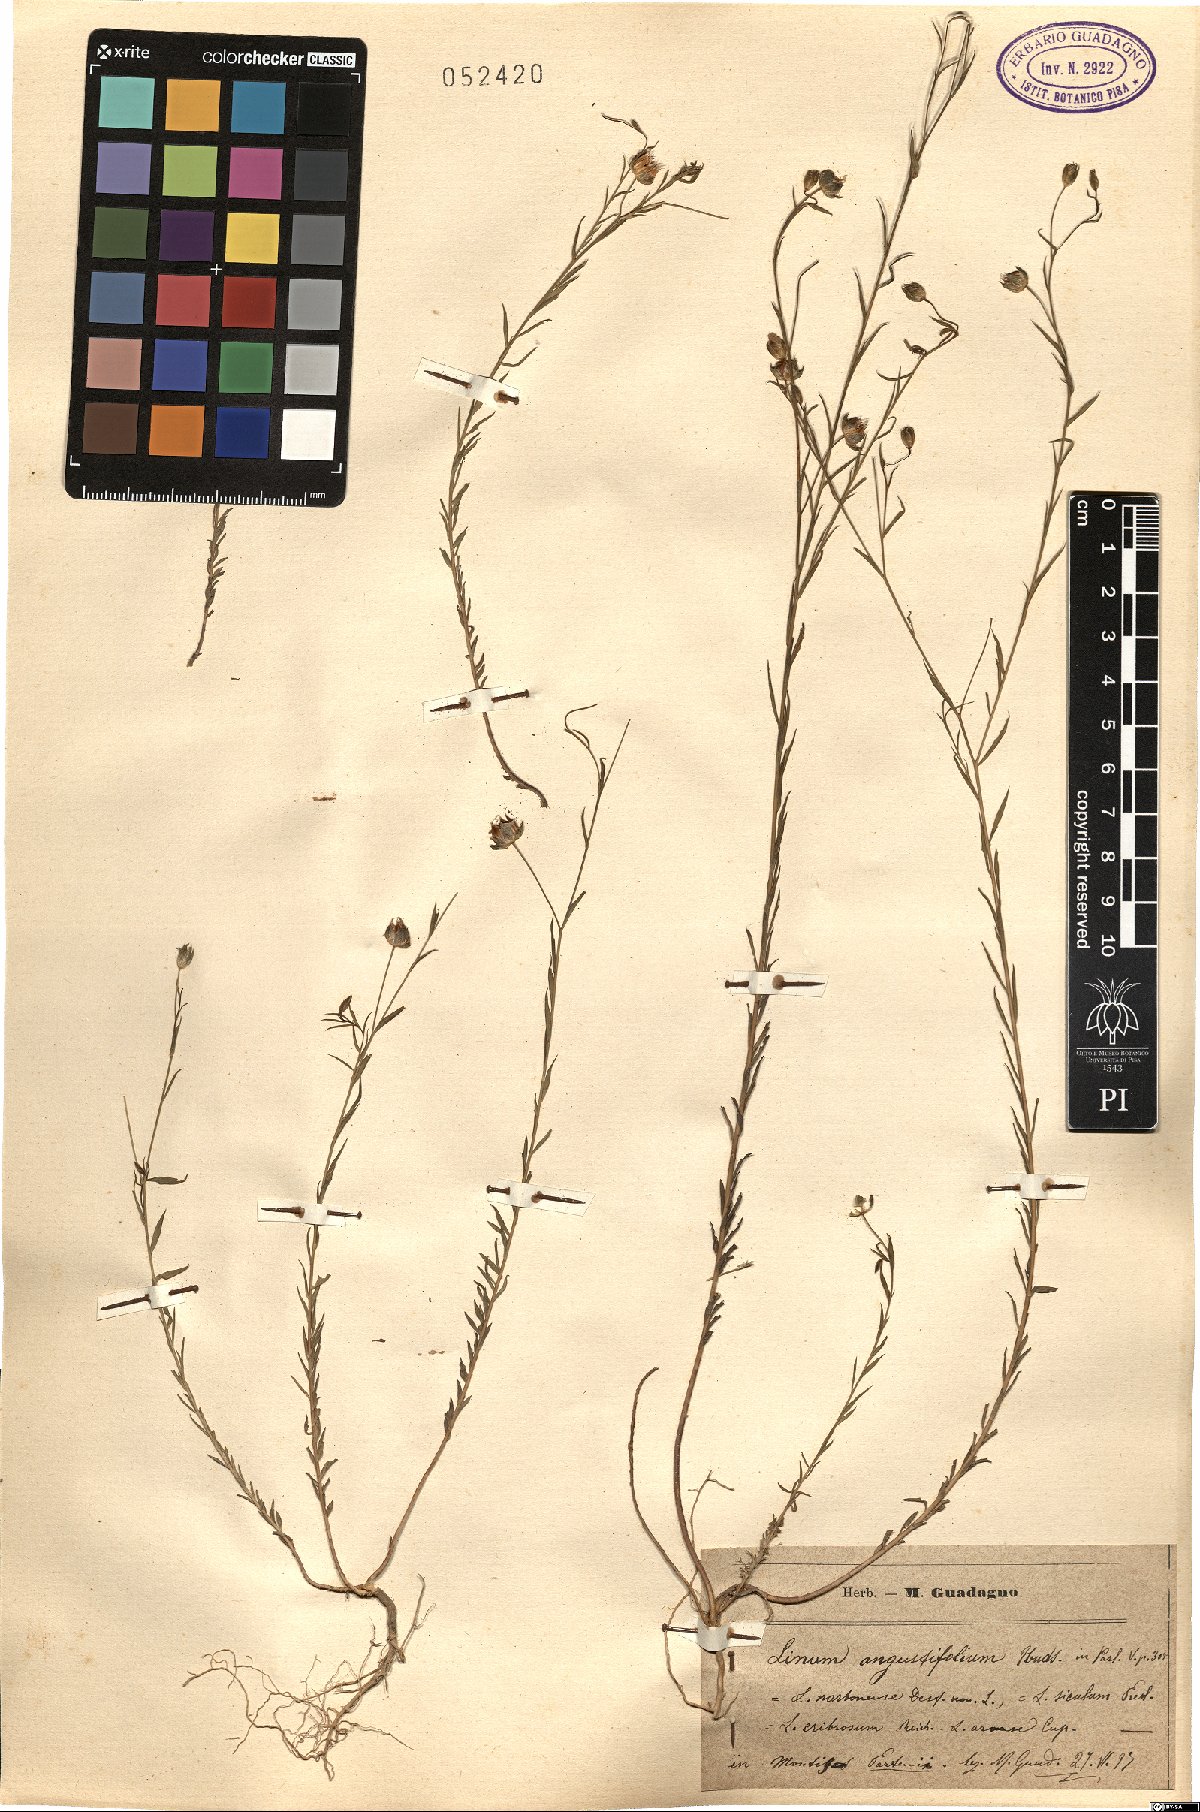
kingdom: Plantae
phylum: Tracheophyta
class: Magnoliopsida
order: Malpighiales
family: Linaceae
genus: Linum
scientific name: Linum bienne
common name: Pale flax
